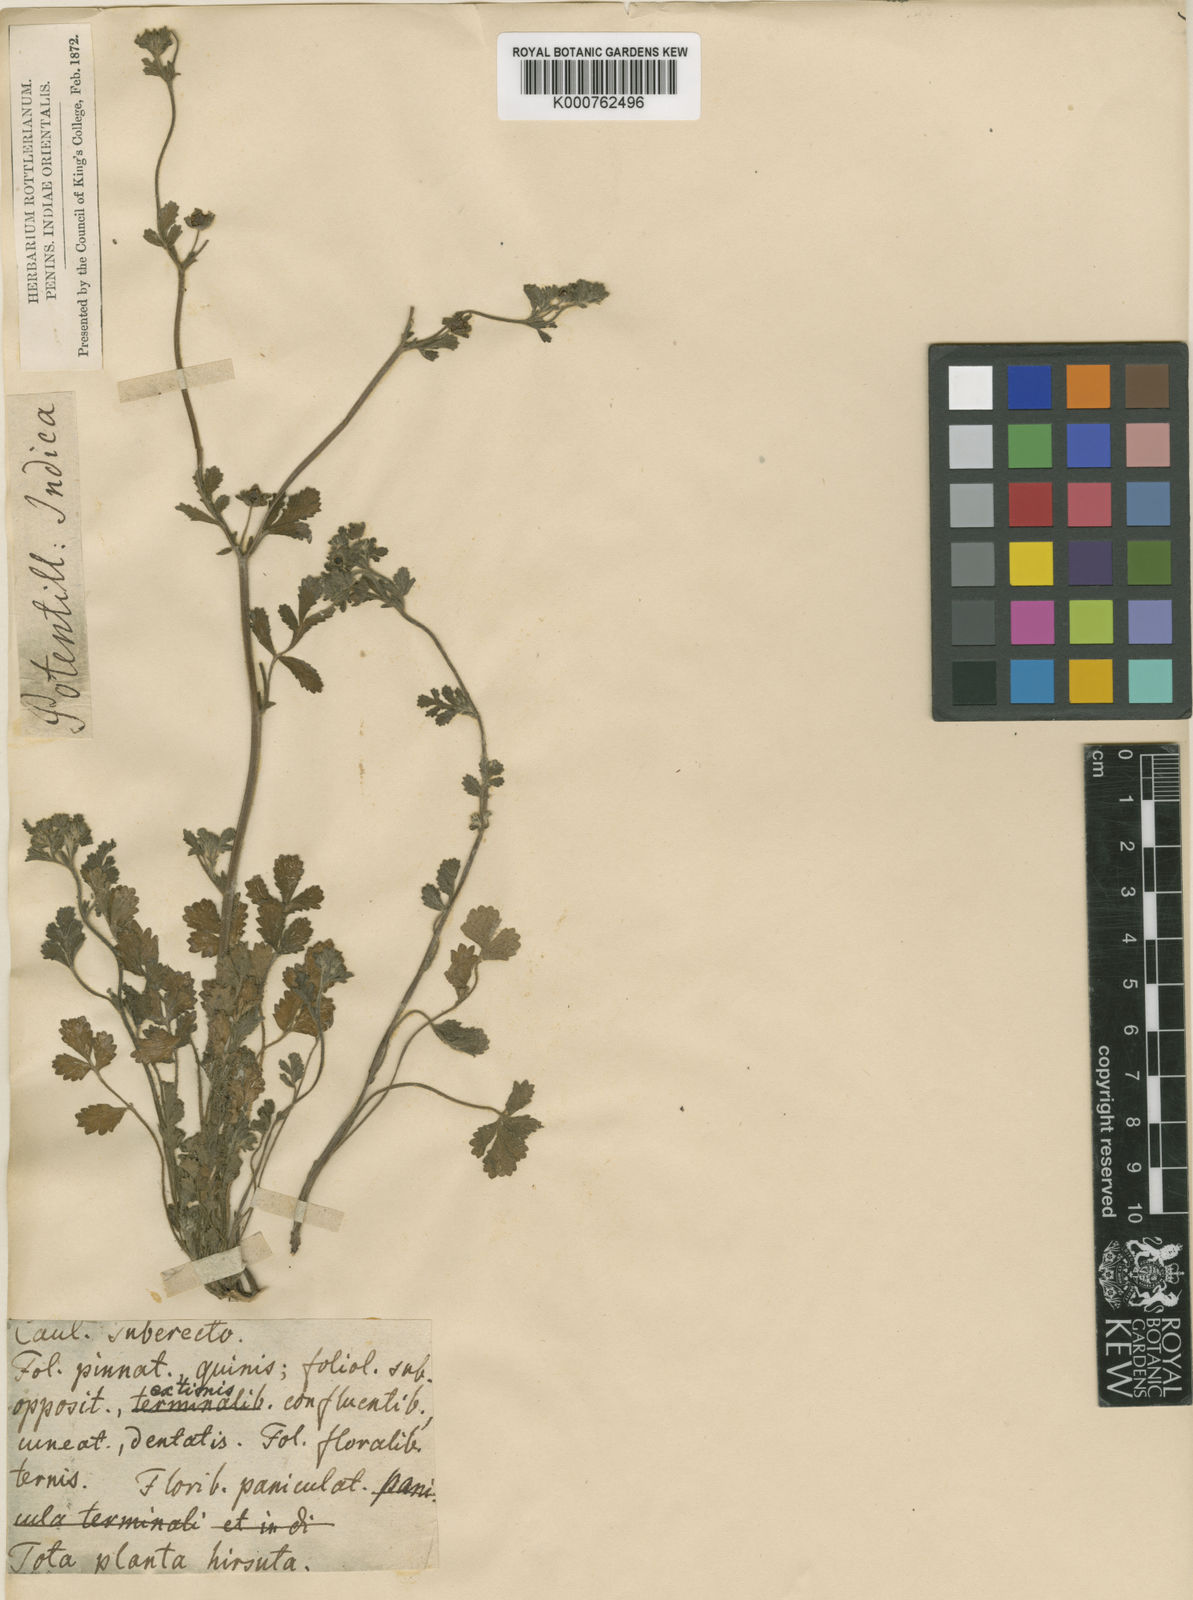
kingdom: Plantae
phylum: Tracheophyta
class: Magnoliopsida
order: Rosales
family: Rosaceae
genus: Potentilla
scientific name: Potentilla supina
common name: Prostrate cinquefoil
